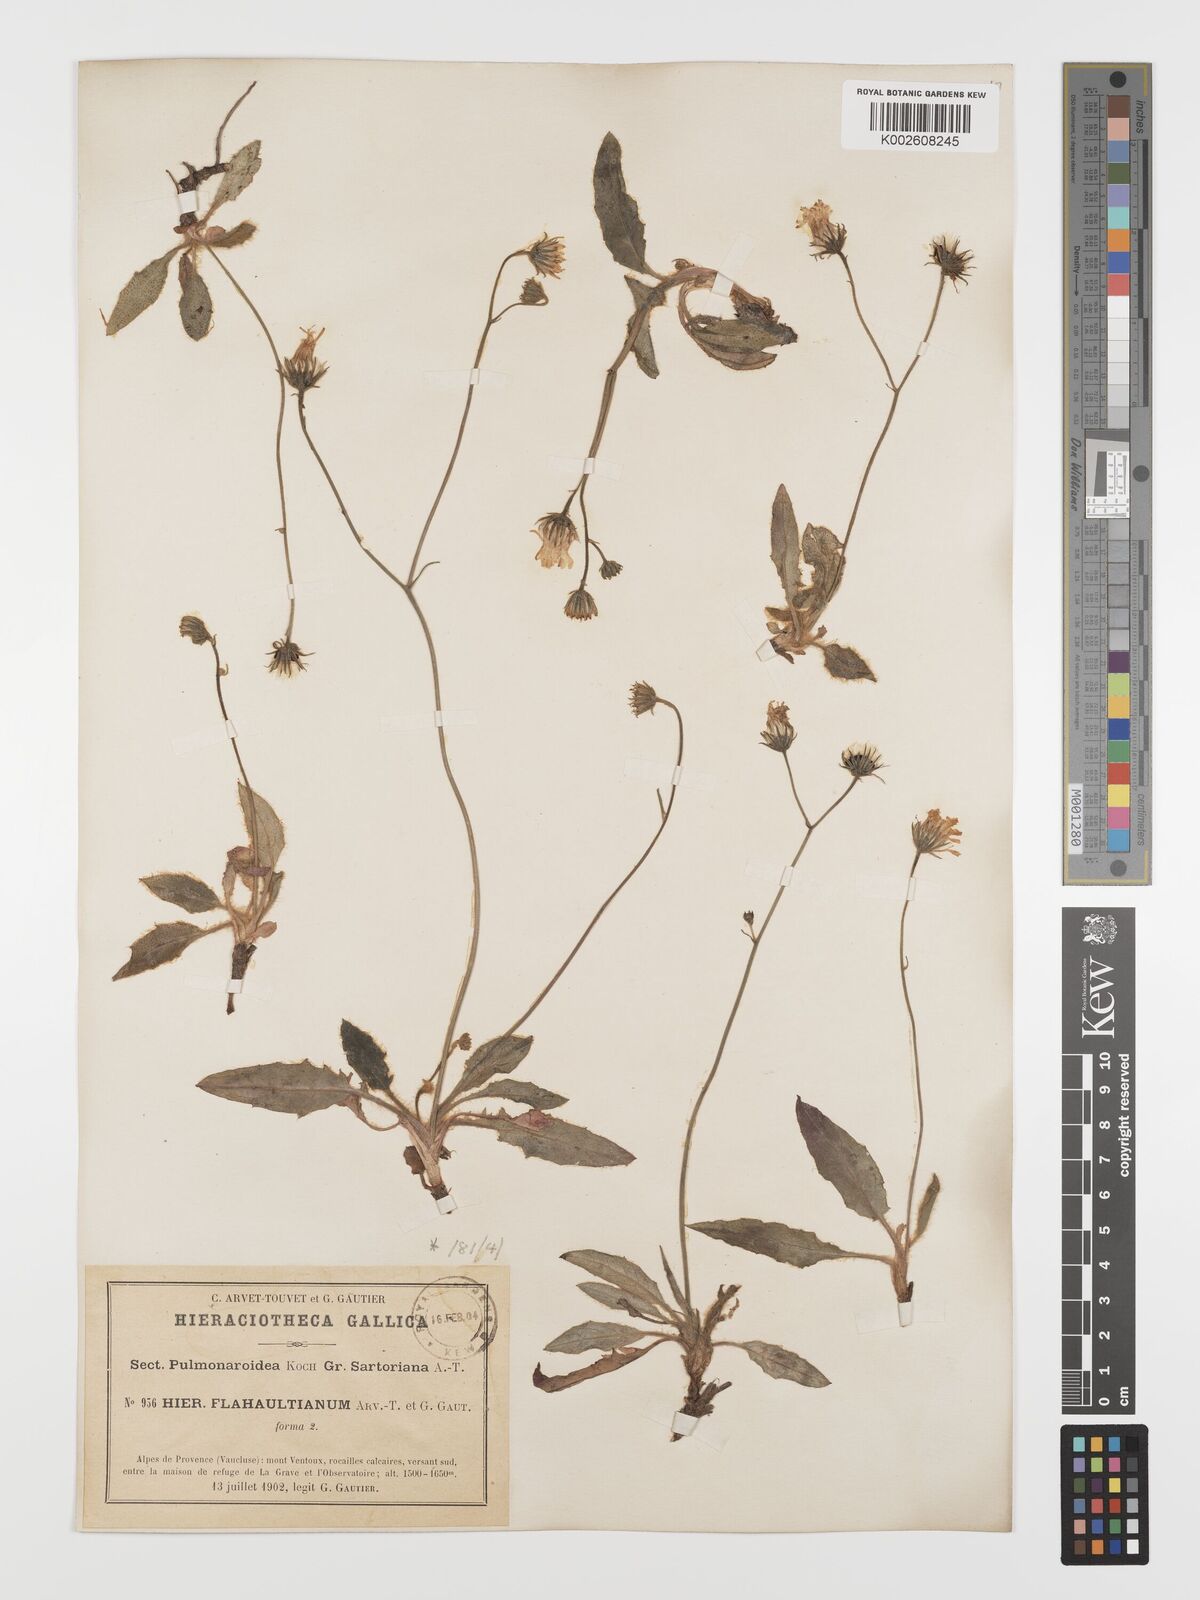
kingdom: Plantae
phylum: Tracheophyta
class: Magnoliopsida
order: Asterales
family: Asteraceae
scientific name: Asteraceae
